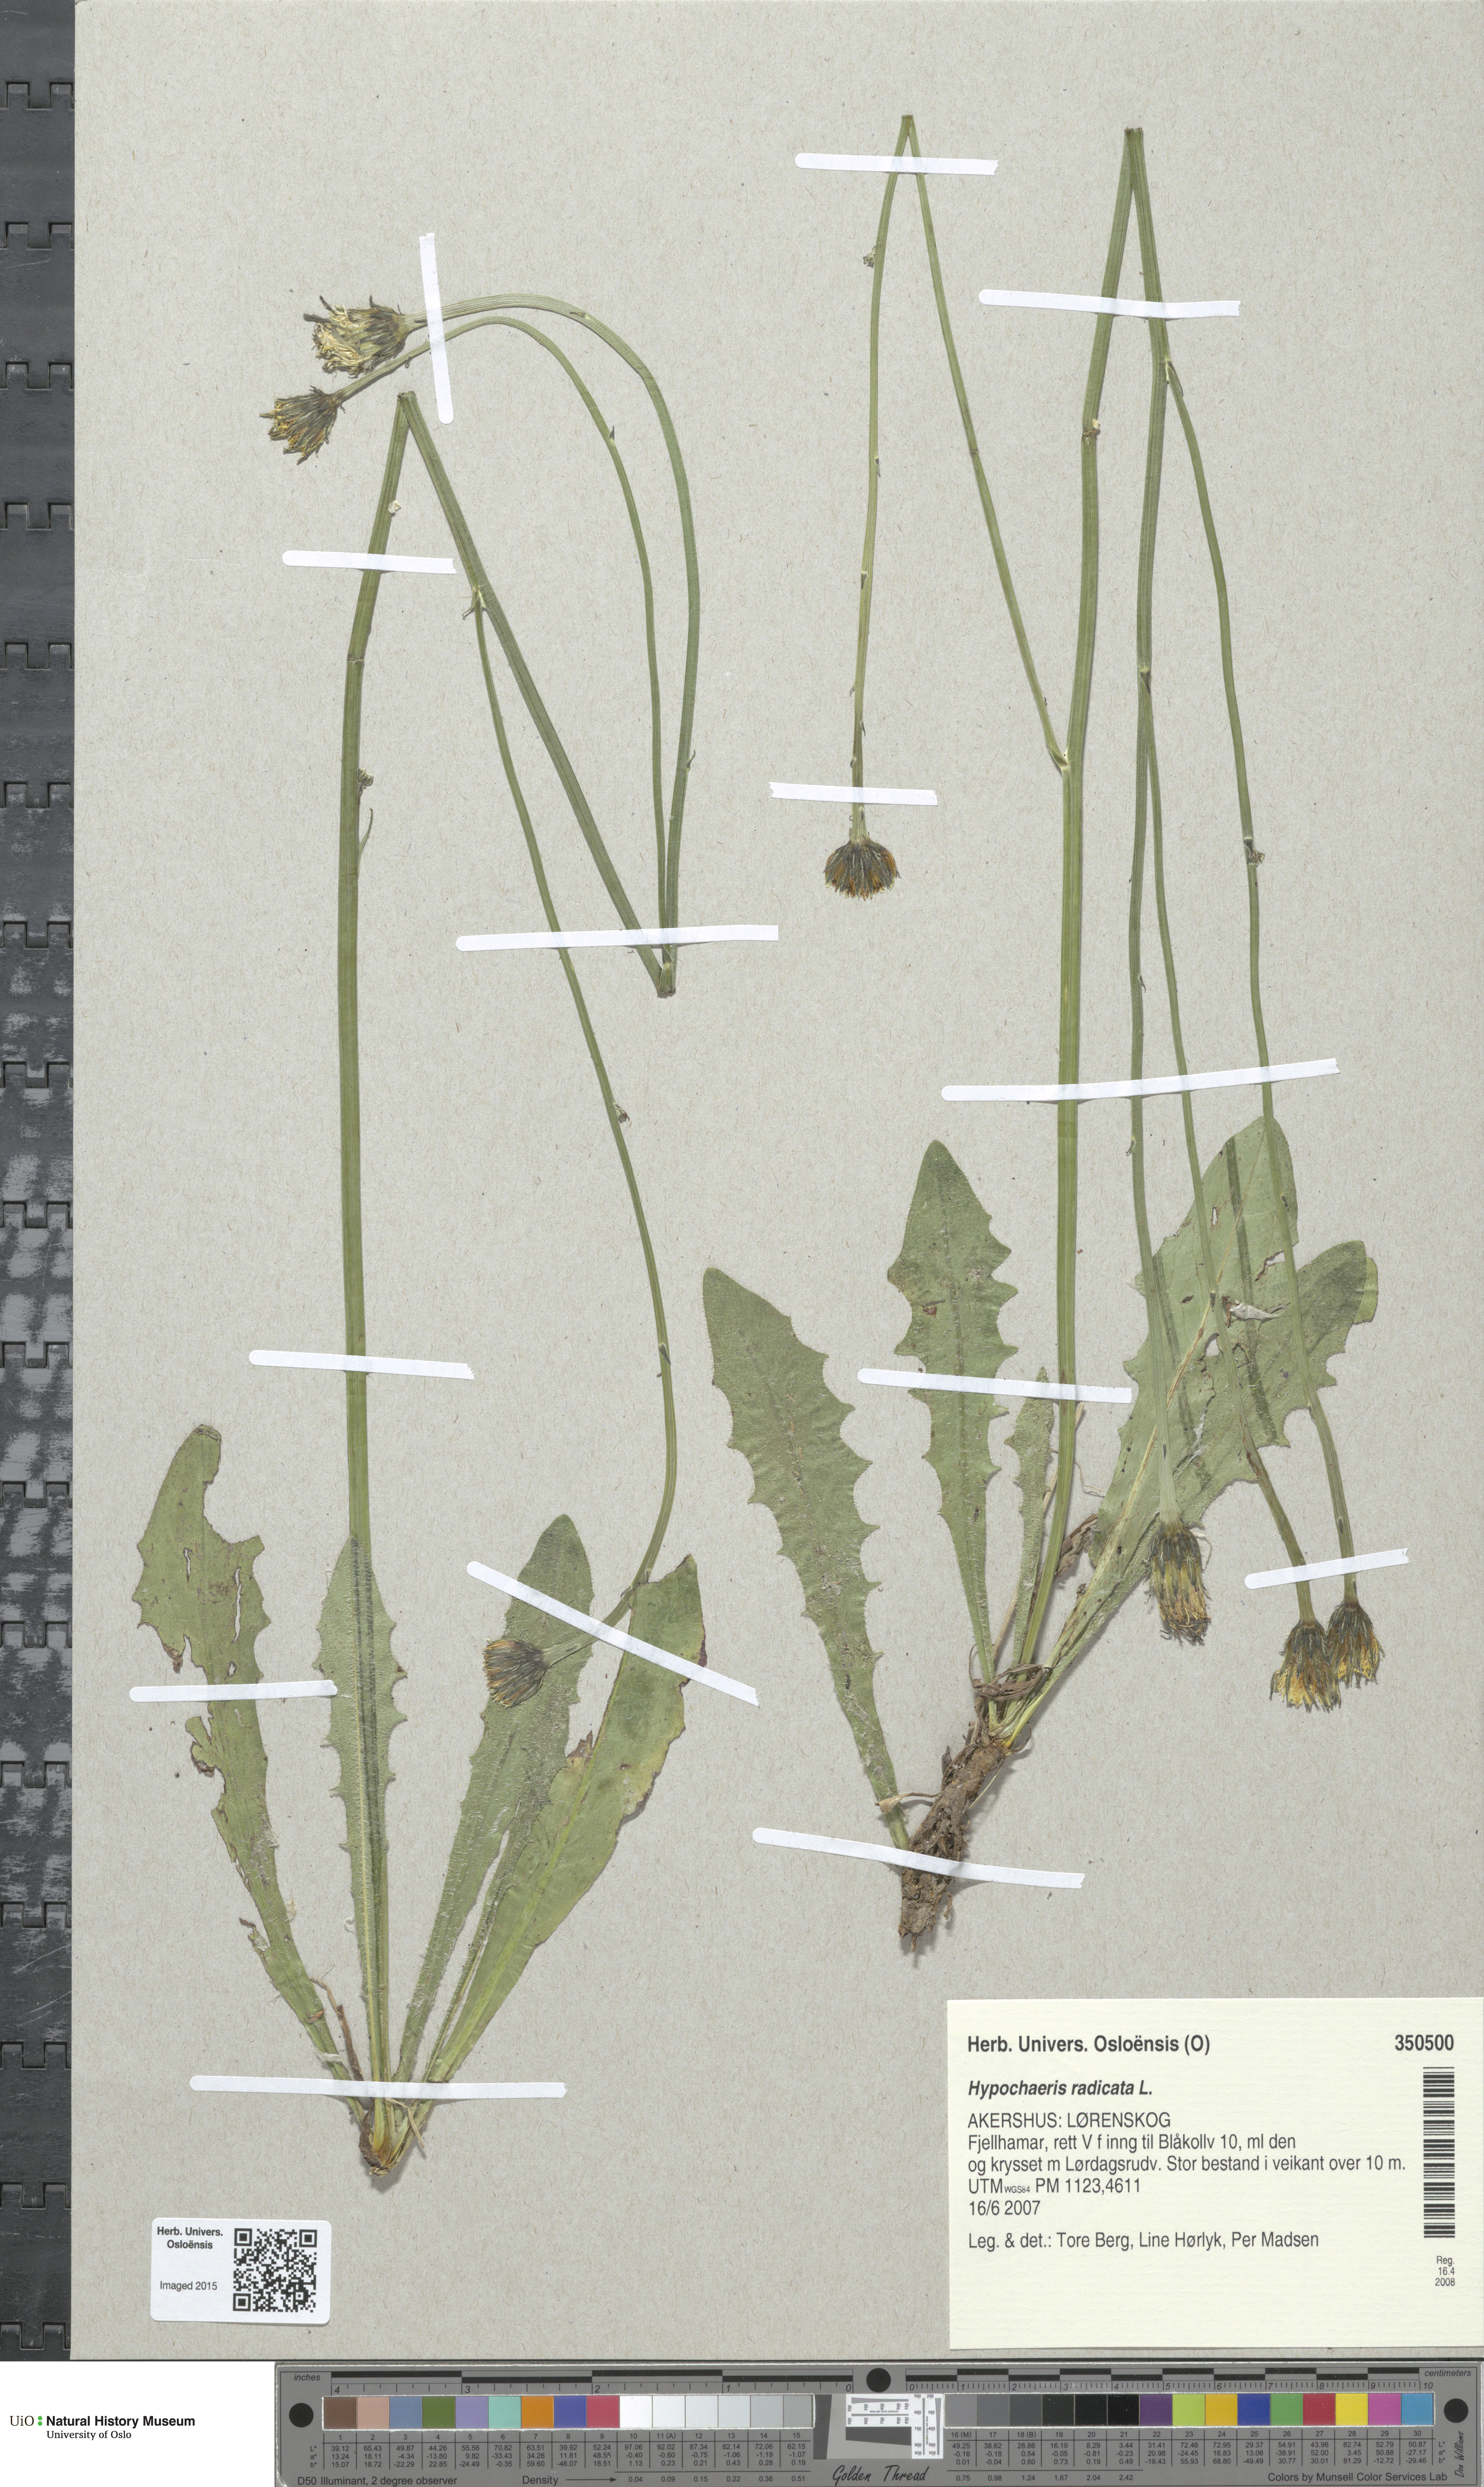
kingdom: Plantae
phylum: Tracheophyta
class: Magnoliopsida
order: Asterales
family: Asteraceae
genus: Hypochaeris
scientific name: Hypochaeris radicata
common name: Flatweed
